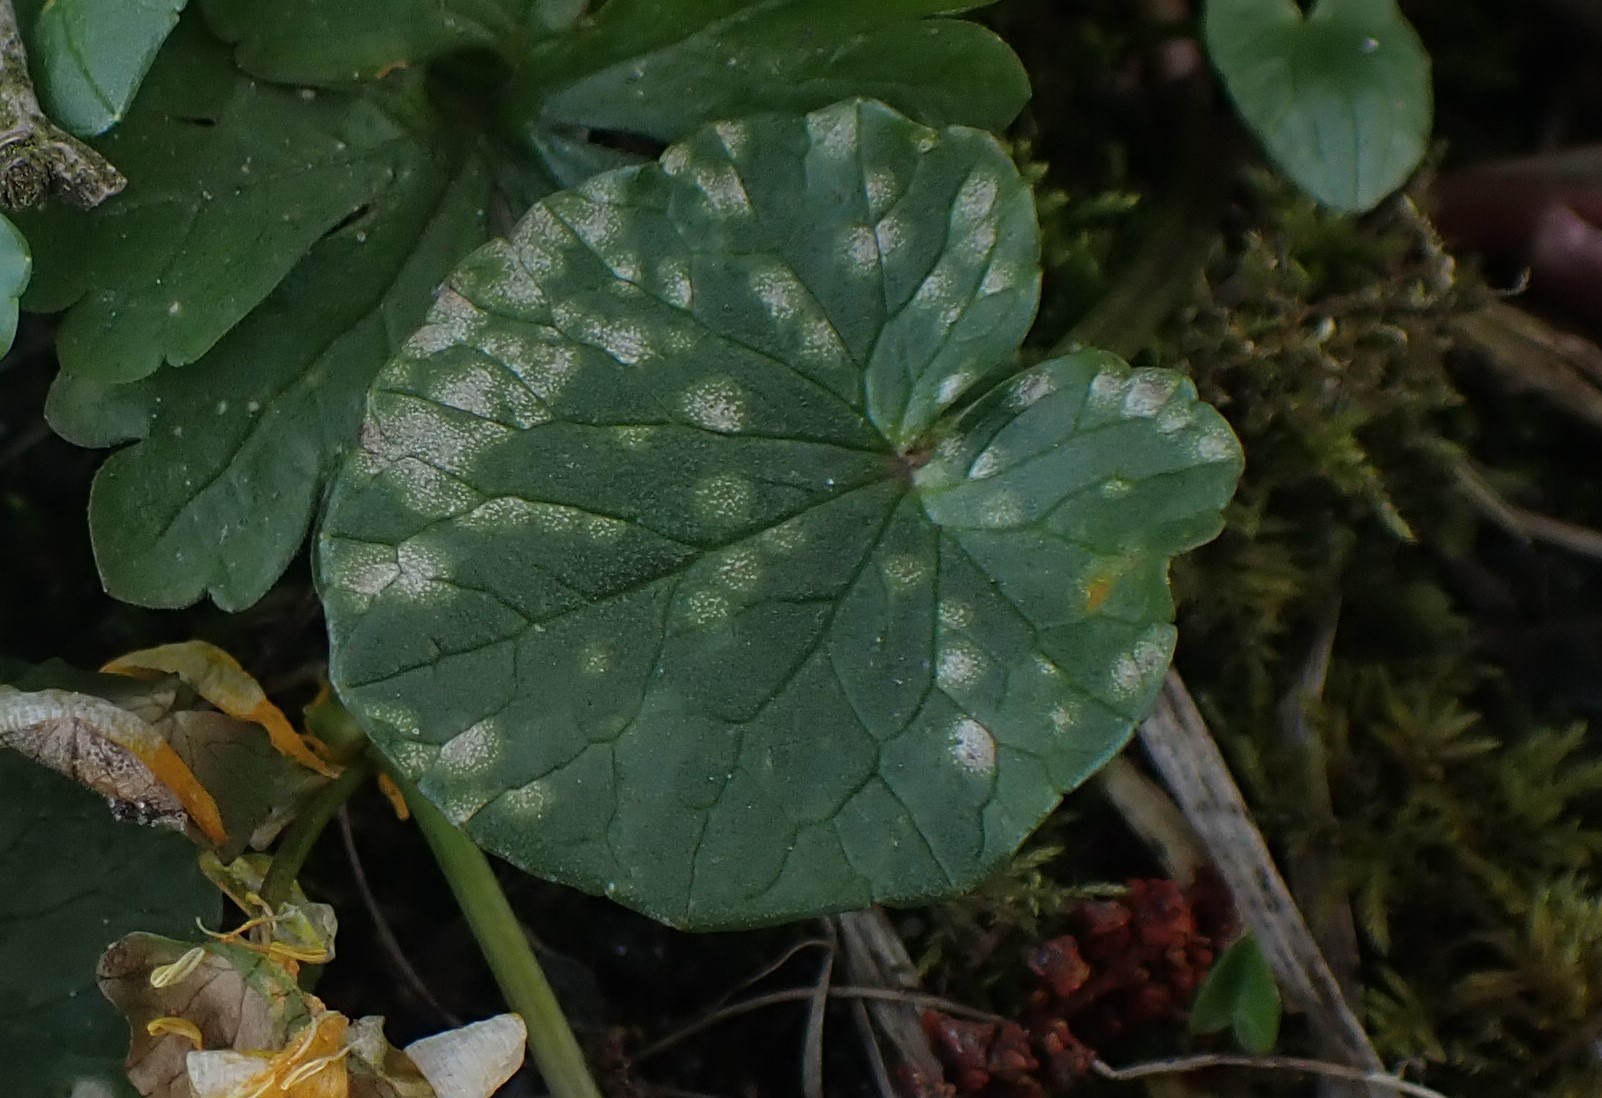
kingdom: Fungi
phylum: Basidiomycota
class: Exobasidiomycetes
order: Entylomatales
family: Entylomataceae
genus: Entyloma
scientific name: Entyloma ficariae
